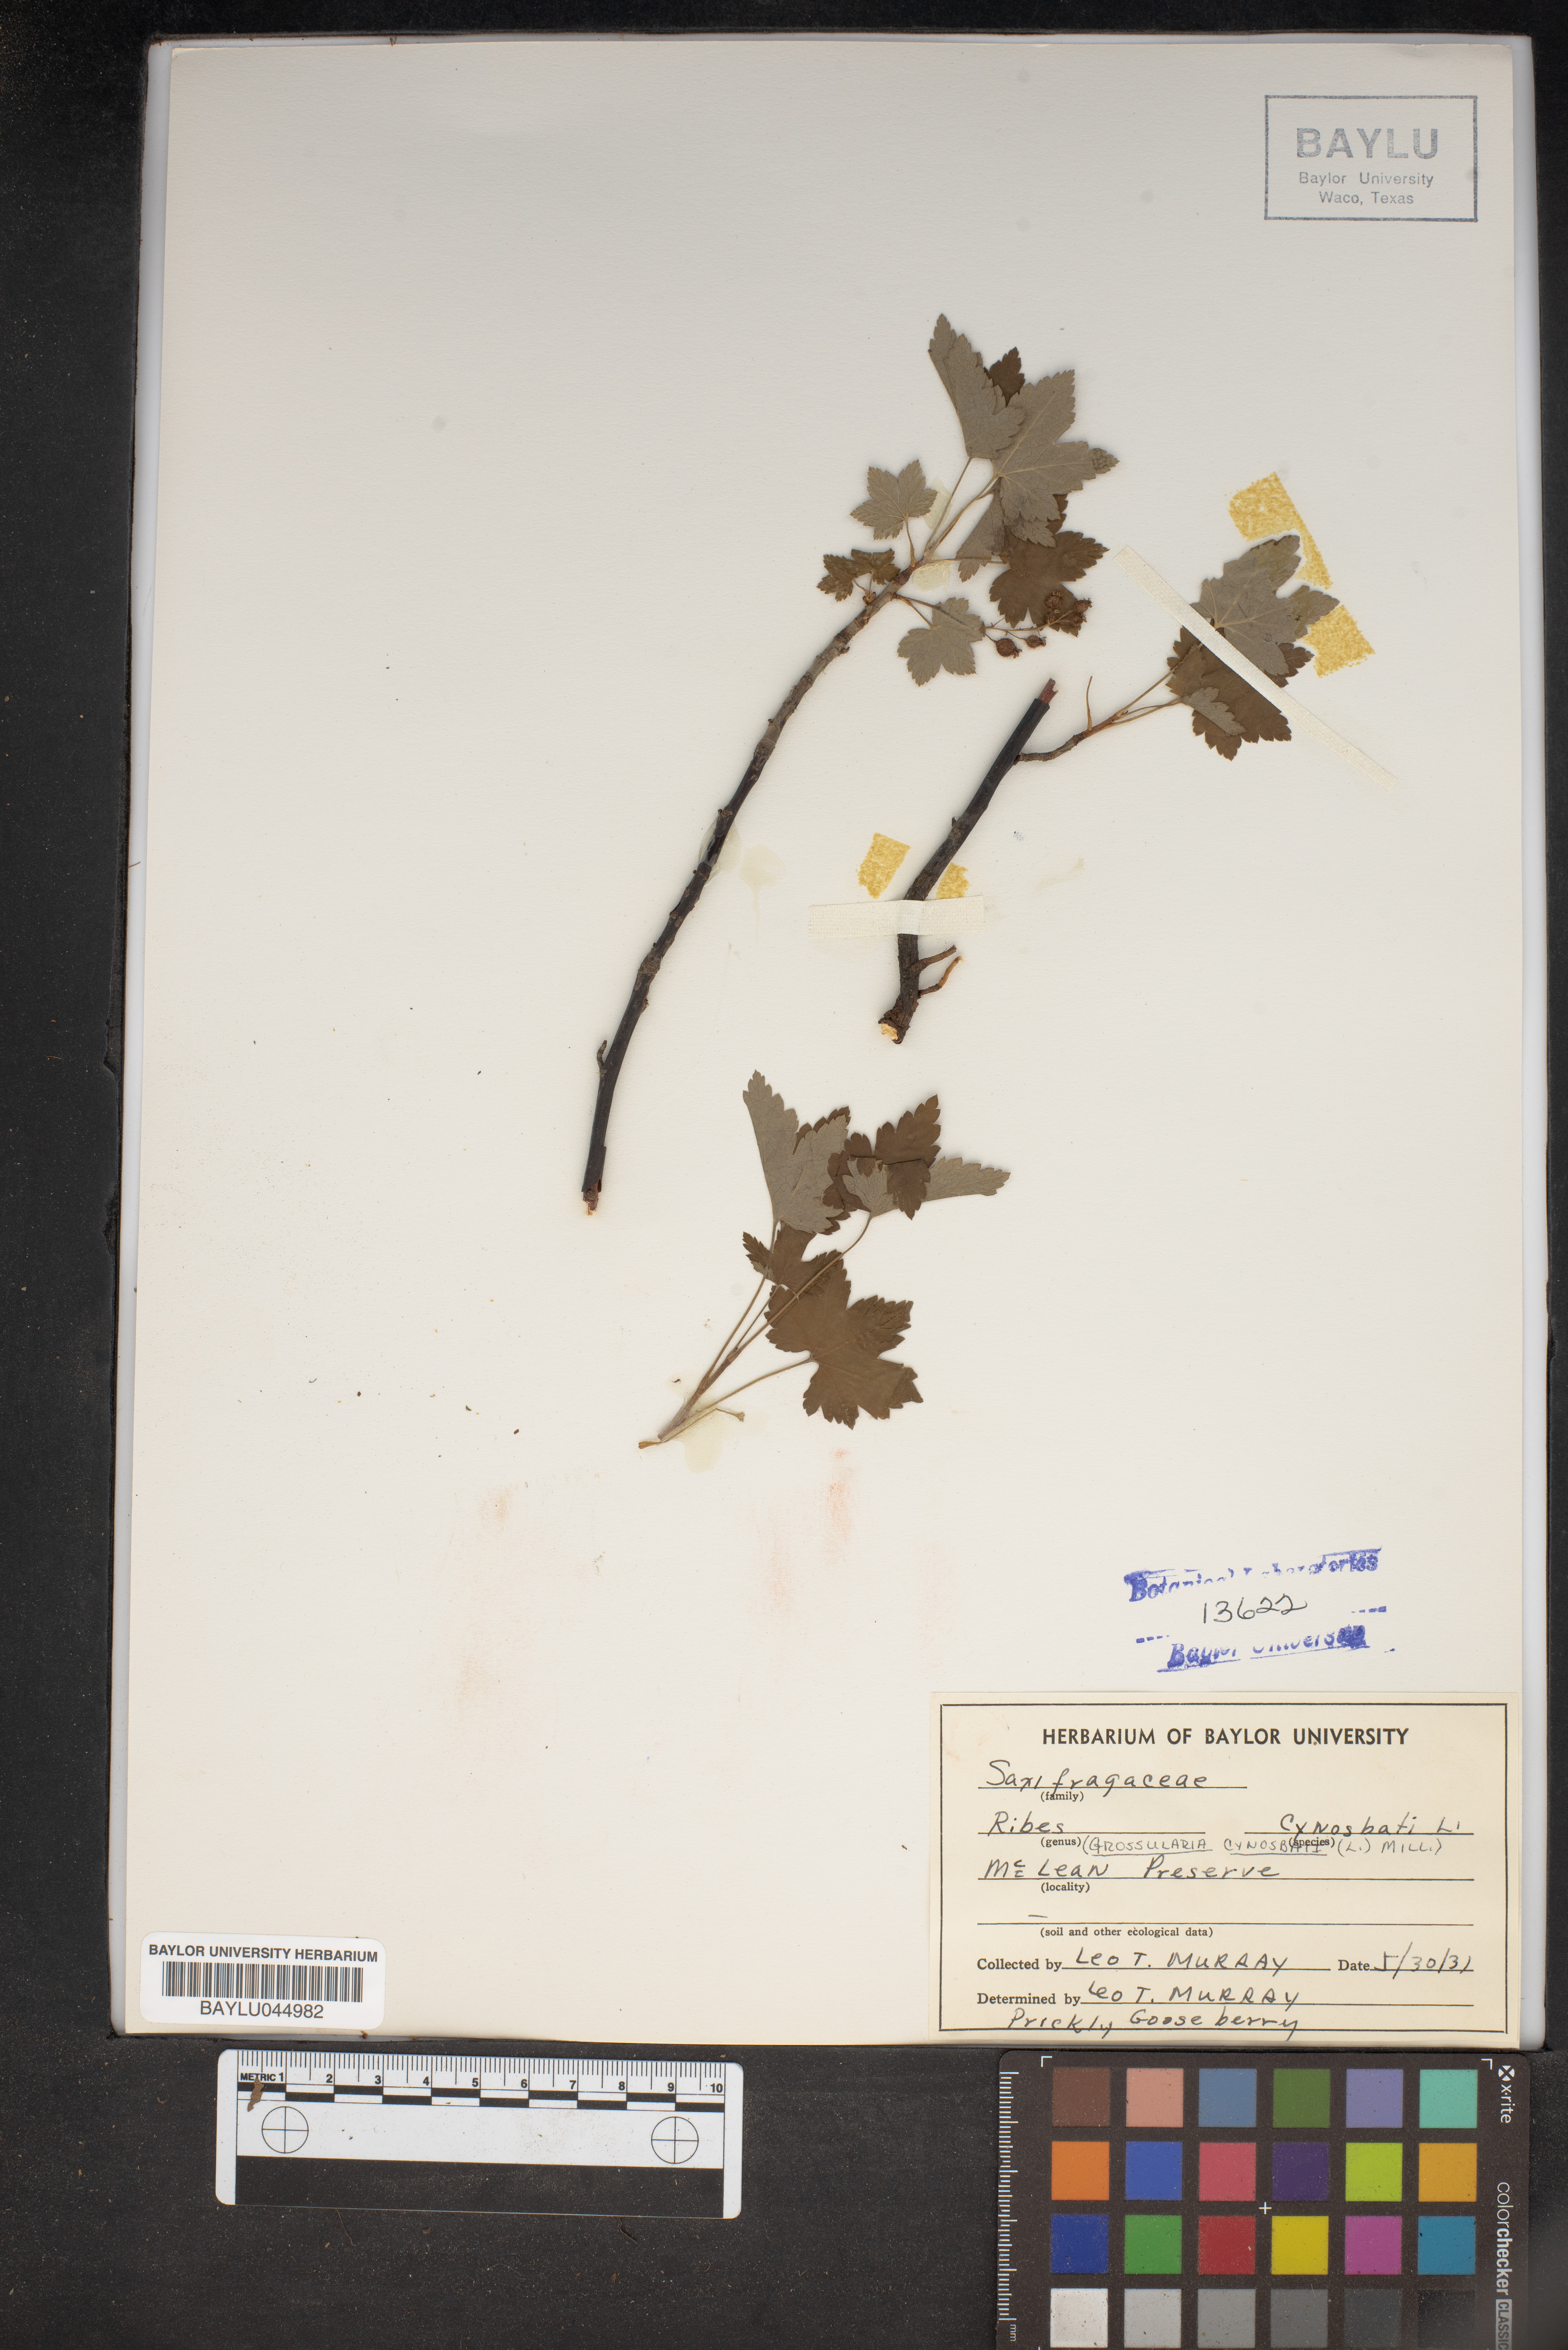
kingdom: Plantae
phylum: Tracheophyta
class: Magnoliopsida
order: Saxifragales
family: Grossulariaceae
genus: Ribes
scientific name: Ribes cynosbati
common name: American gooseberry
